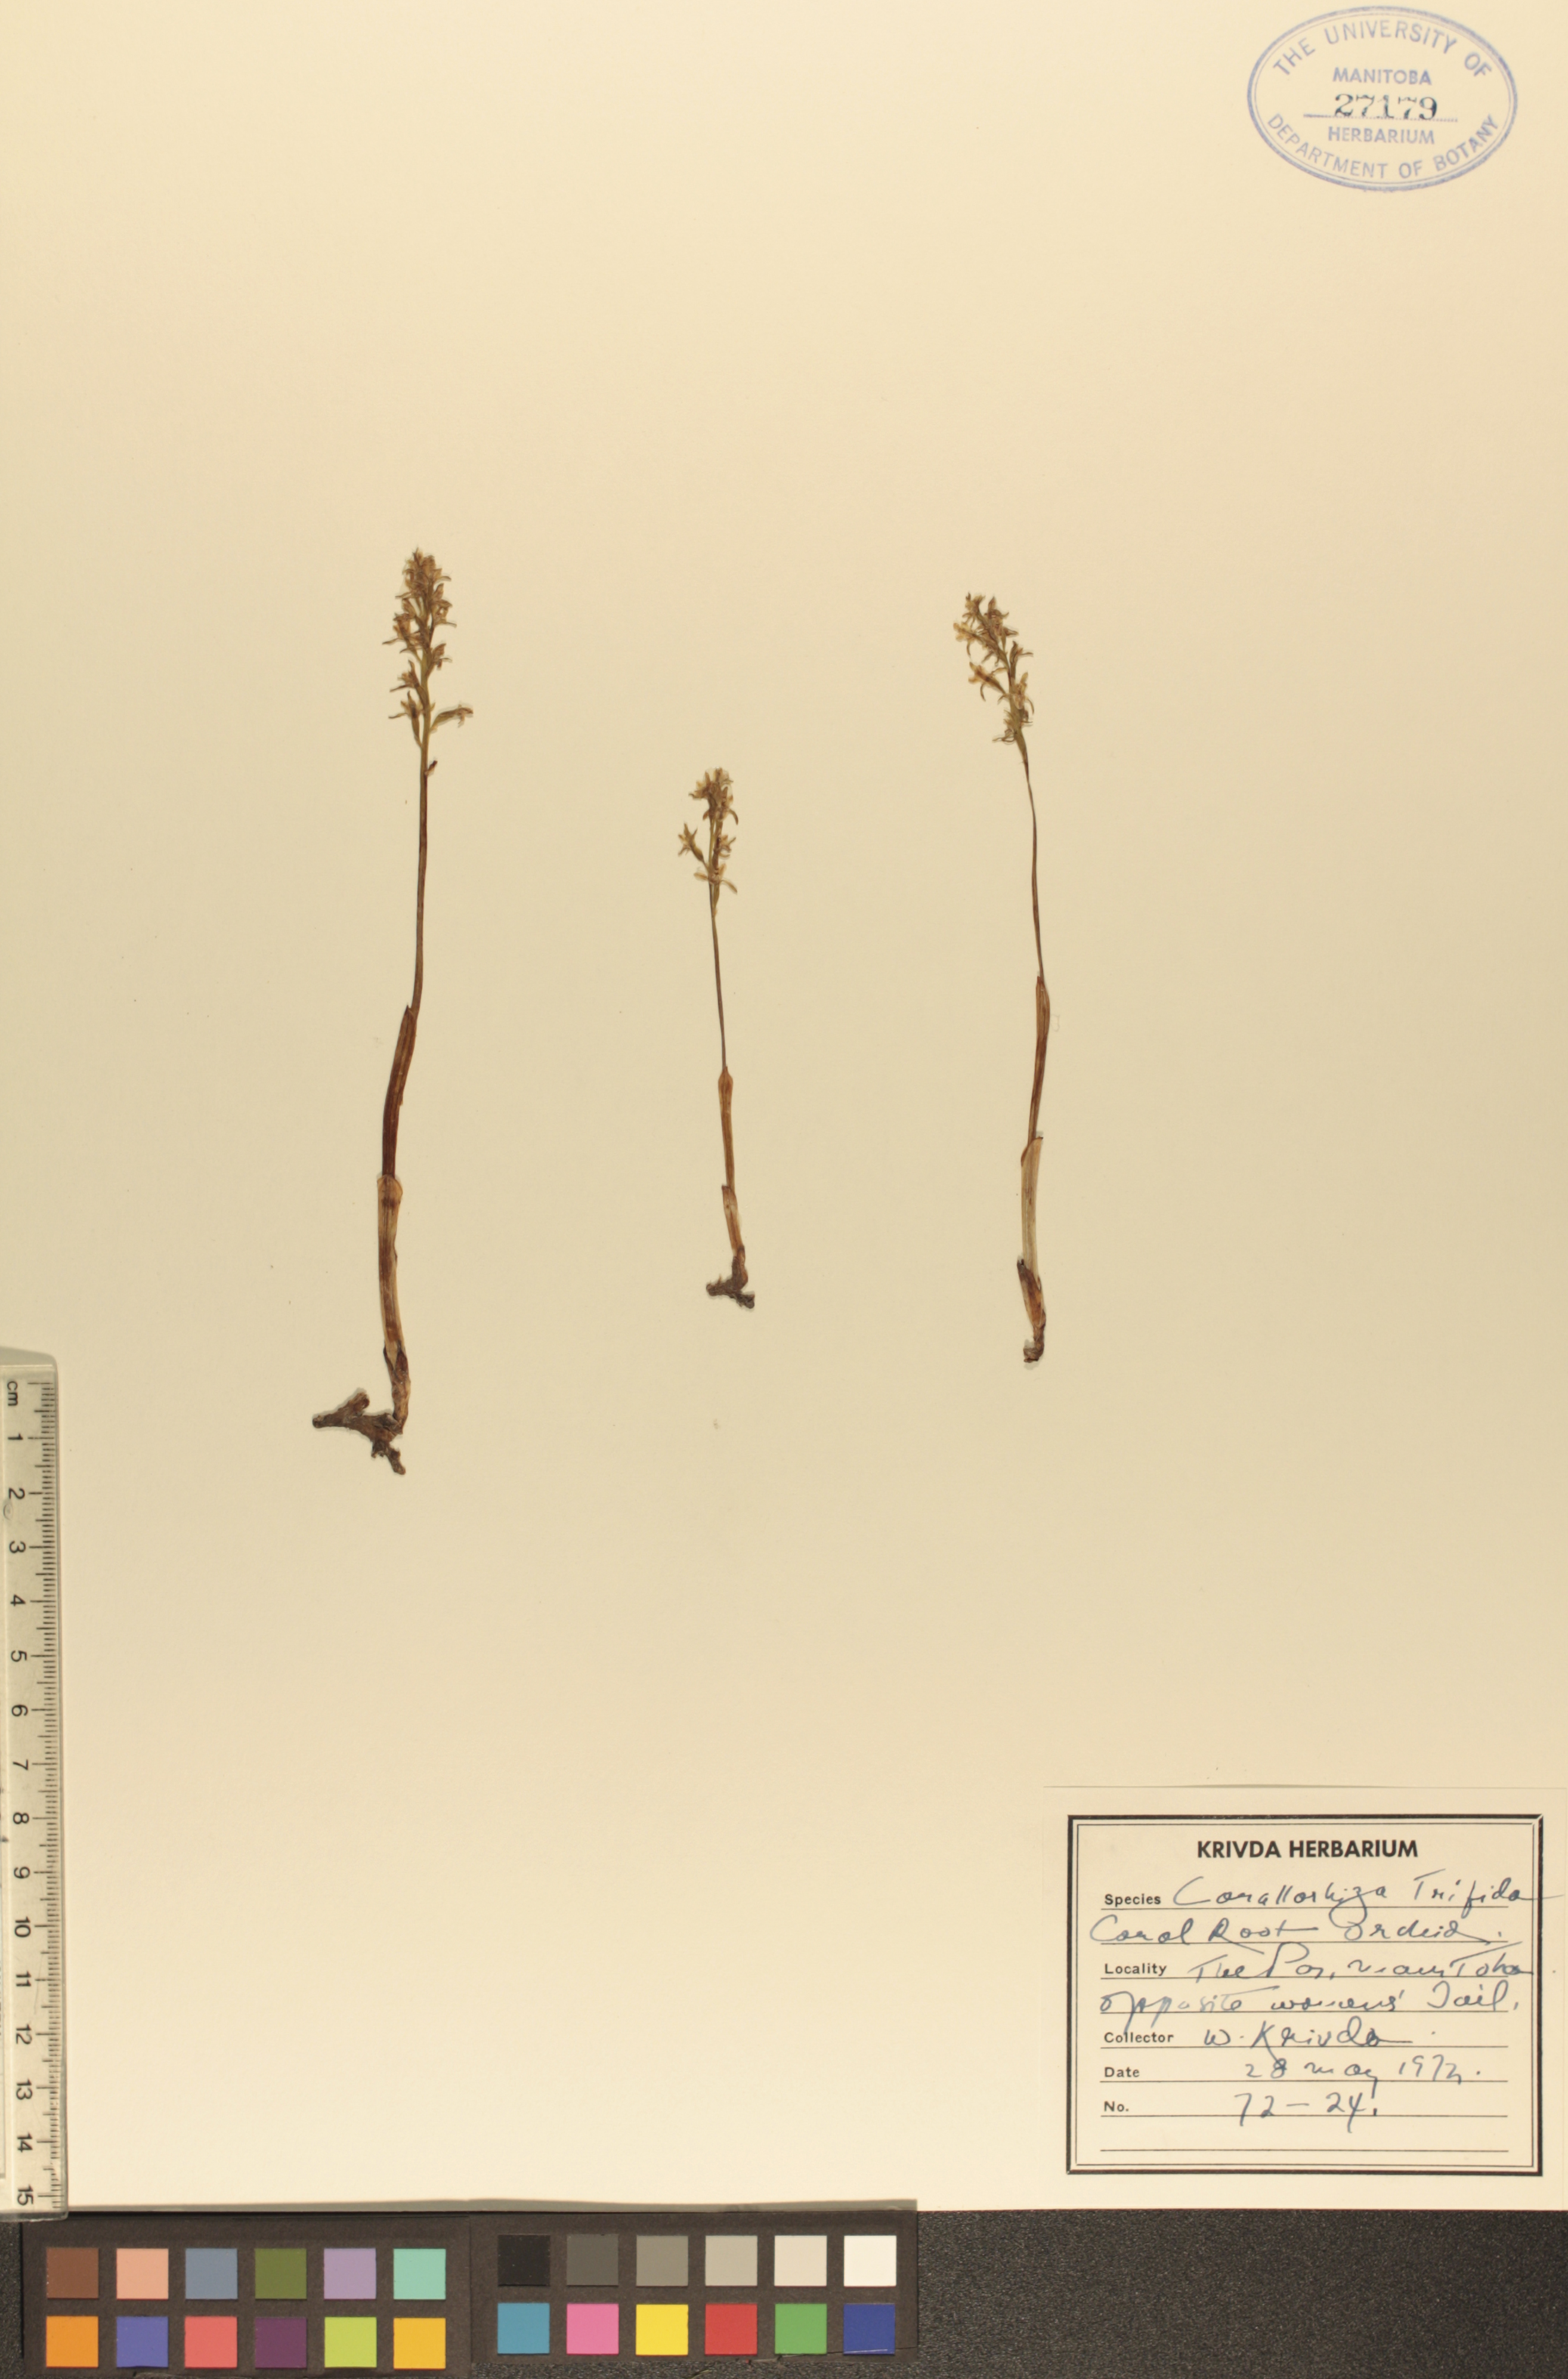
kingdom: Plantae
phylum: Tracheophyta
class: Liliopsida
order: Asparagales
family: Orchidaceae
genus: Corallorhiza
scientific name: Corallorhiza trifida
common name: Yellow coralroot
